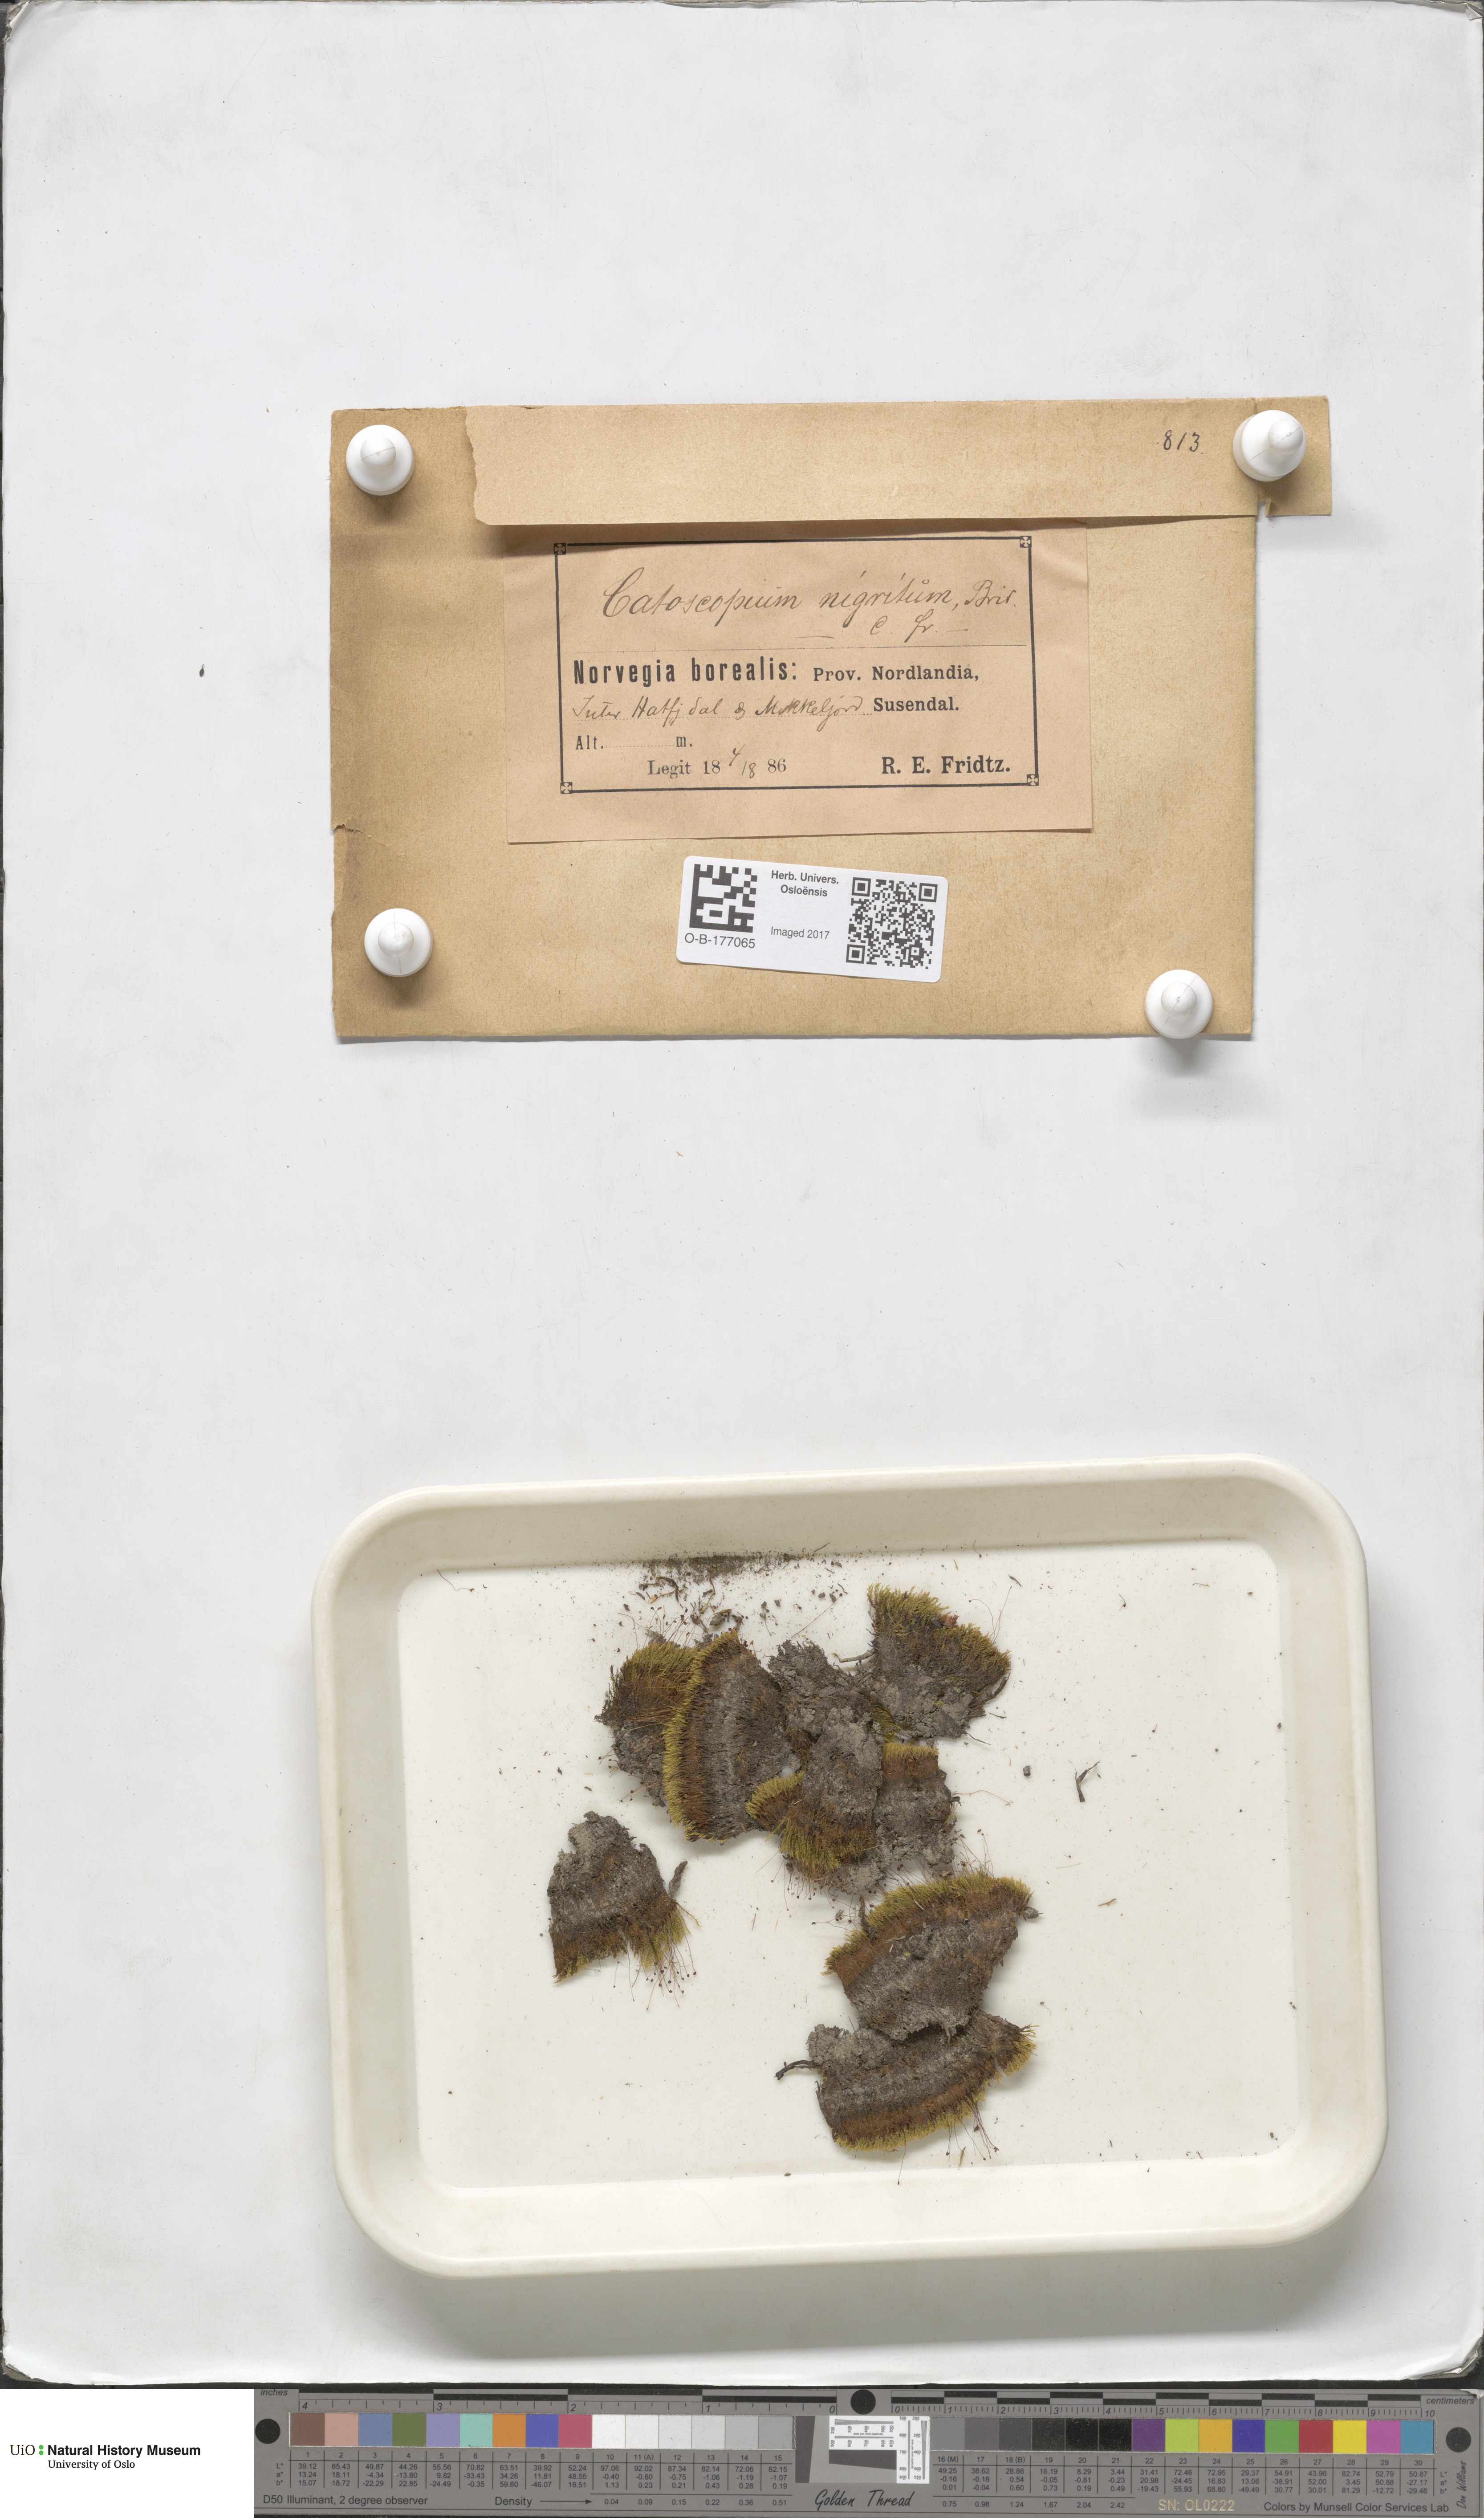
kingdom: Plantae
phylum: Bryophyta
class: Bryopsida
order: Catoscopiales
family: Catoscopiaceae
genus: Catoscopium
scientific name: Catoscopium nigritum
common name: Black golf club moss
